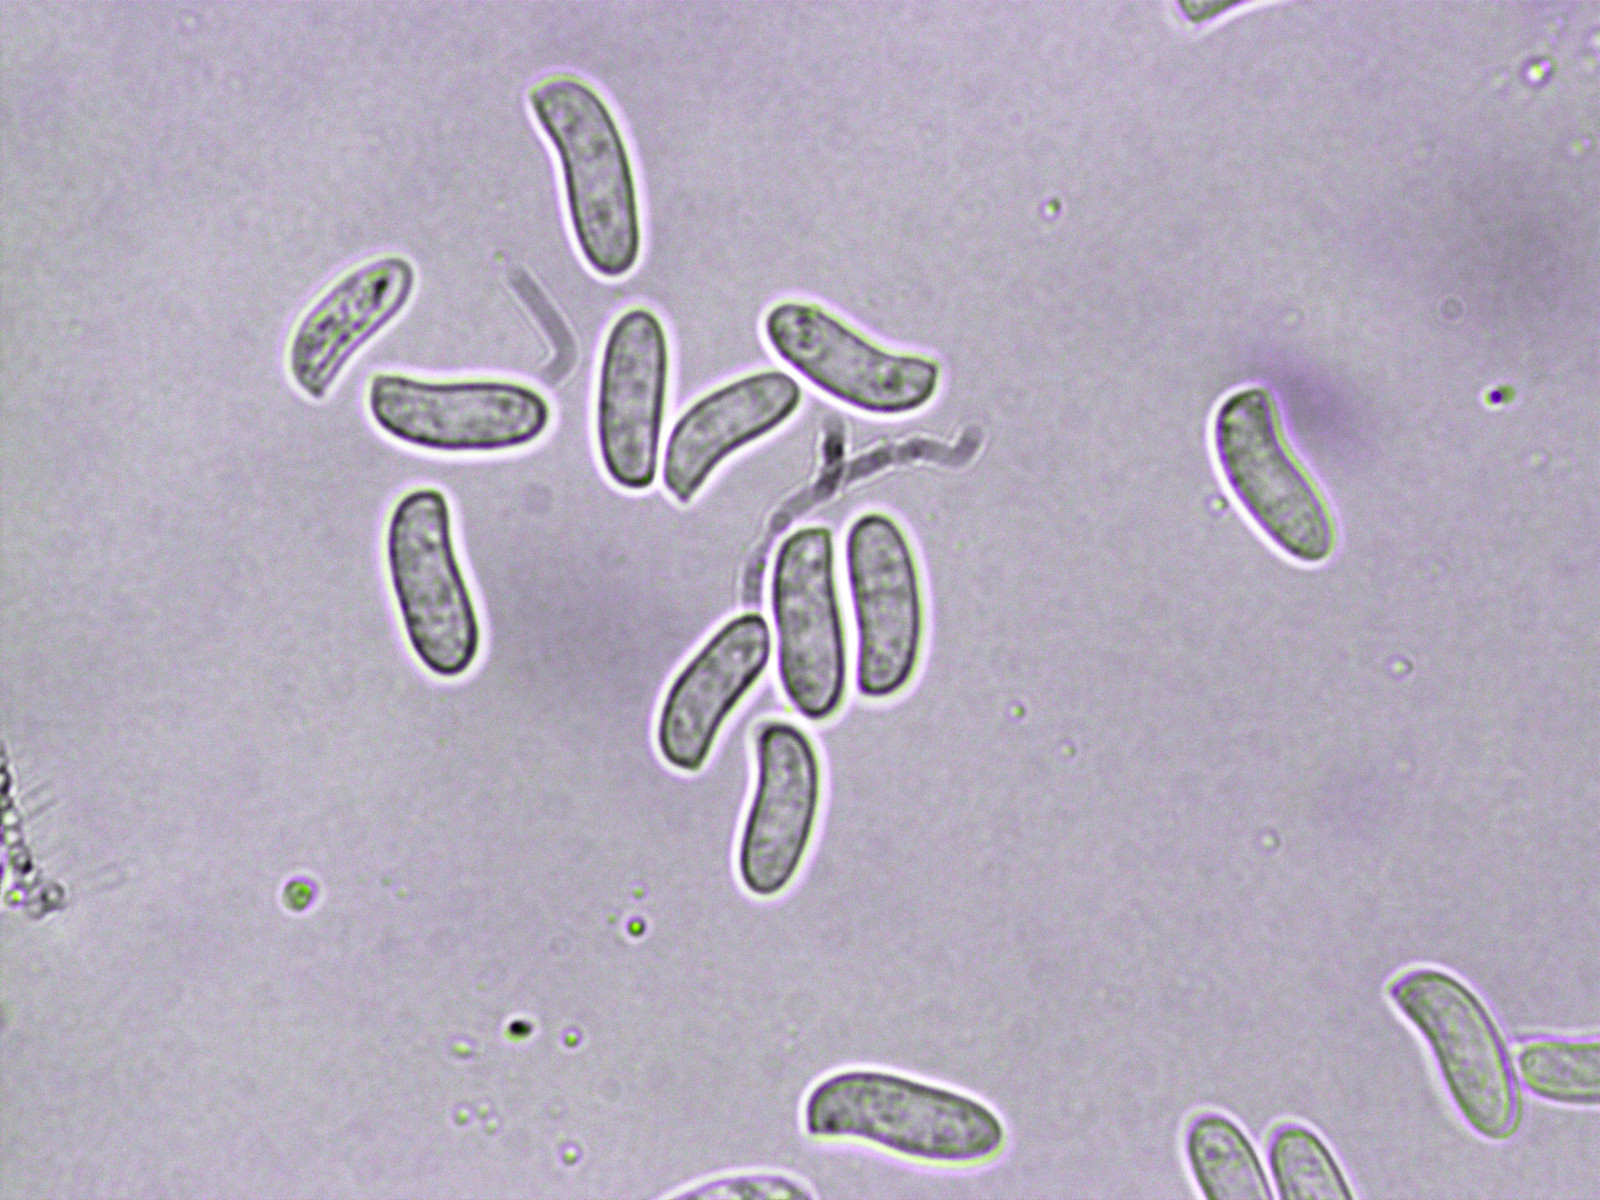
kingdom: Fungi
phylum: Basidiomycota
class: Agaricomycetes
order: Russulales
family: Peniophoraceae
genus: Peniophora
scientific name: Peniophora lycii
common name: grynet voksskind
